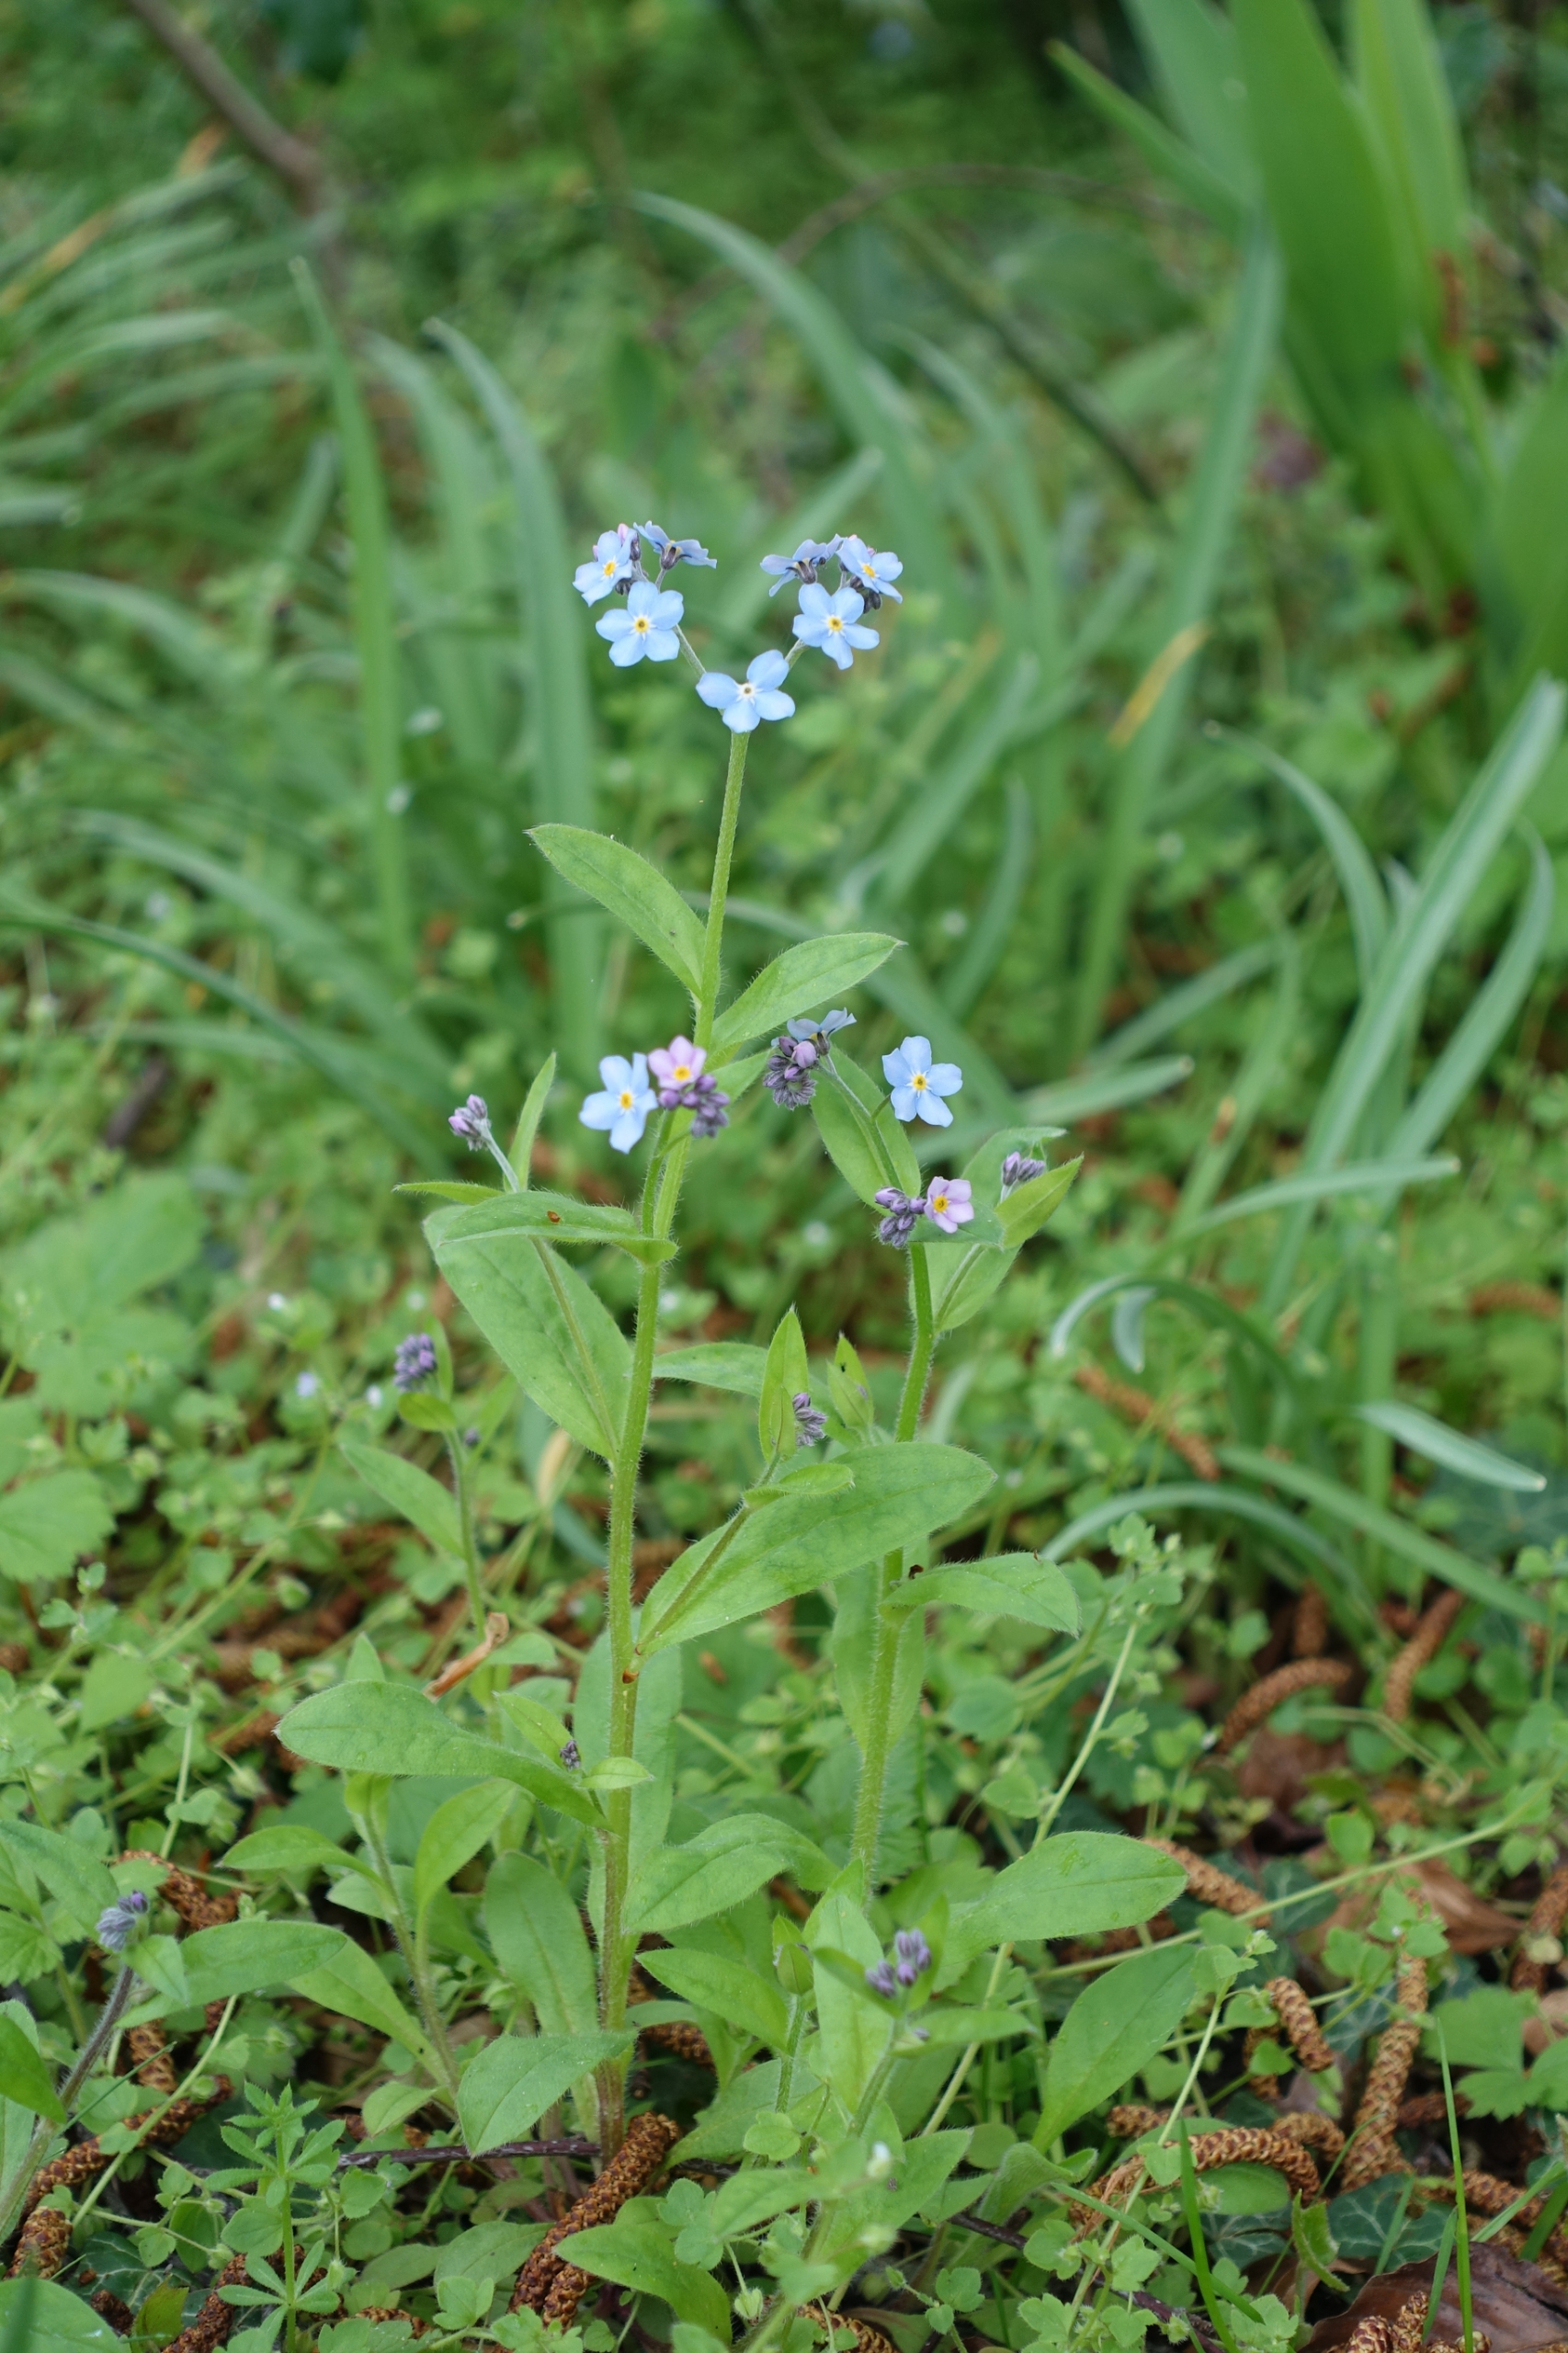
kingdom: Plantae
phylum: Tracheophyta
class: Magnoliopsida
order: Boraginales
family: Boraginaceae
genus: Myosotis
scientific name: Myosotis laxa
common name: Sump-forglemmigej
